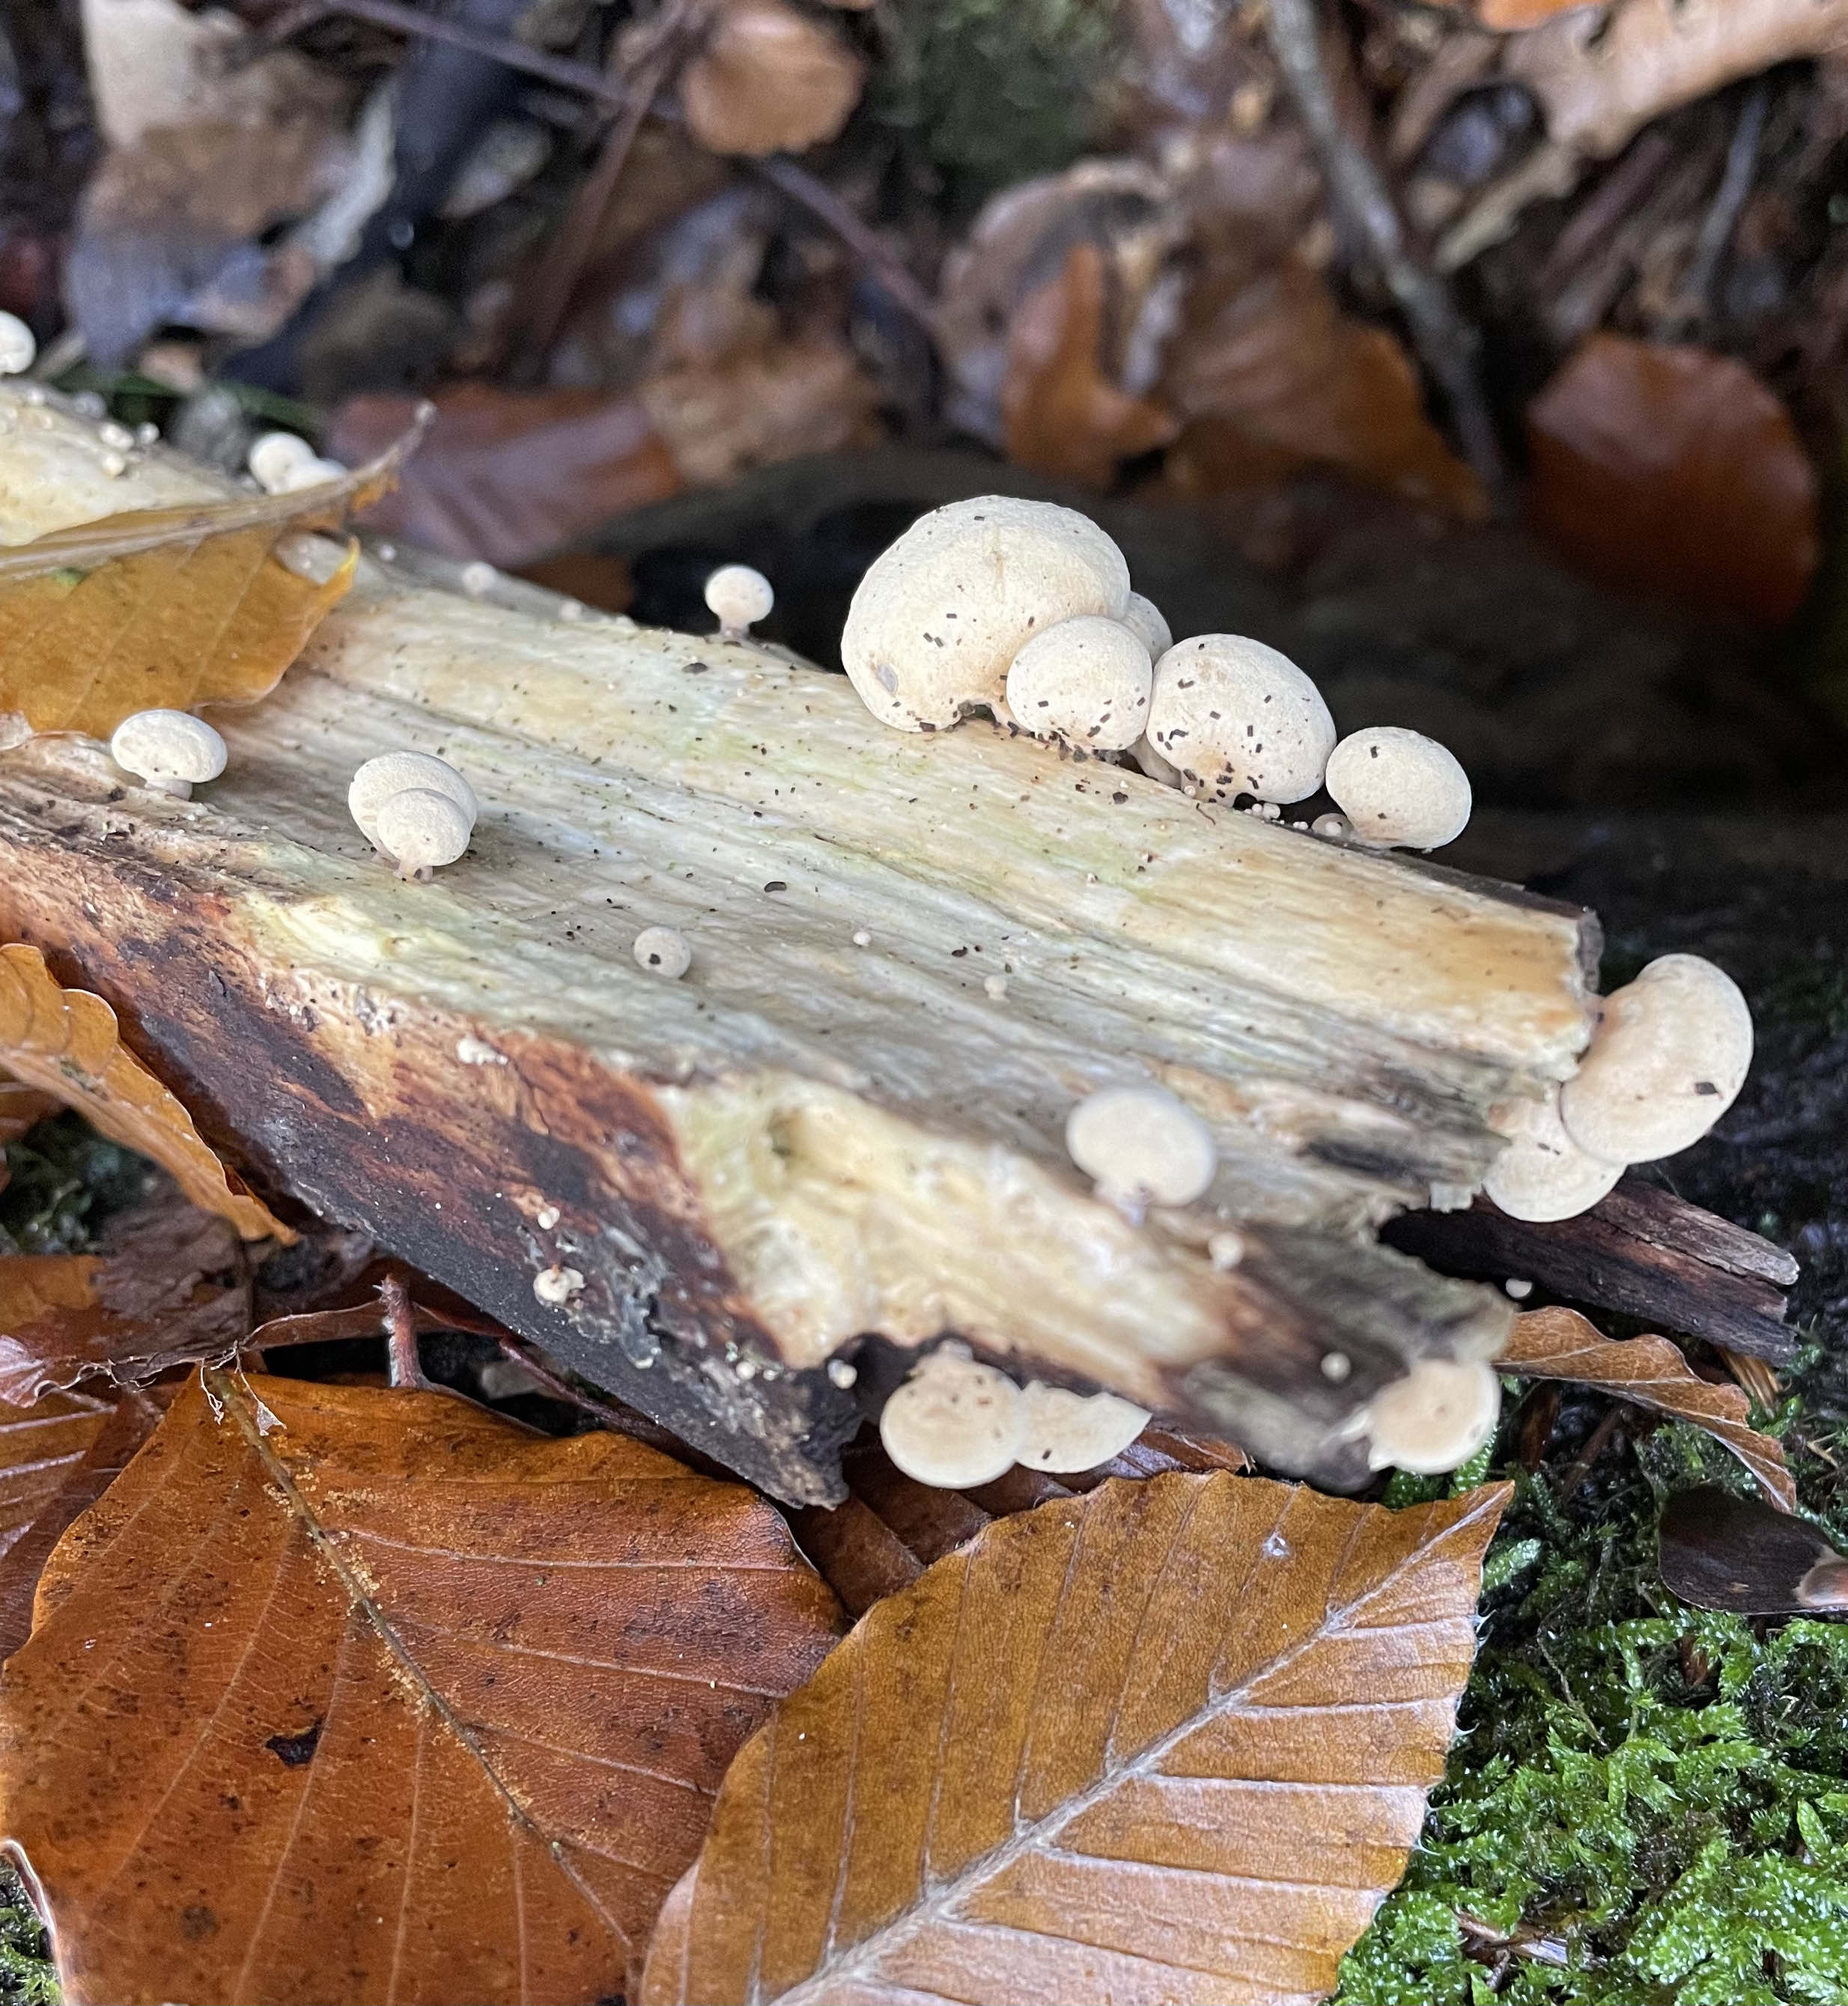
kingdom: Fungi
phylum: Basidiomycota
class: Agaricomycetes
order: Agaricales
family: Mycenaceae
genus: Panellus
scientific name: Panellus stipticus
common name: kliddet epaulethat
